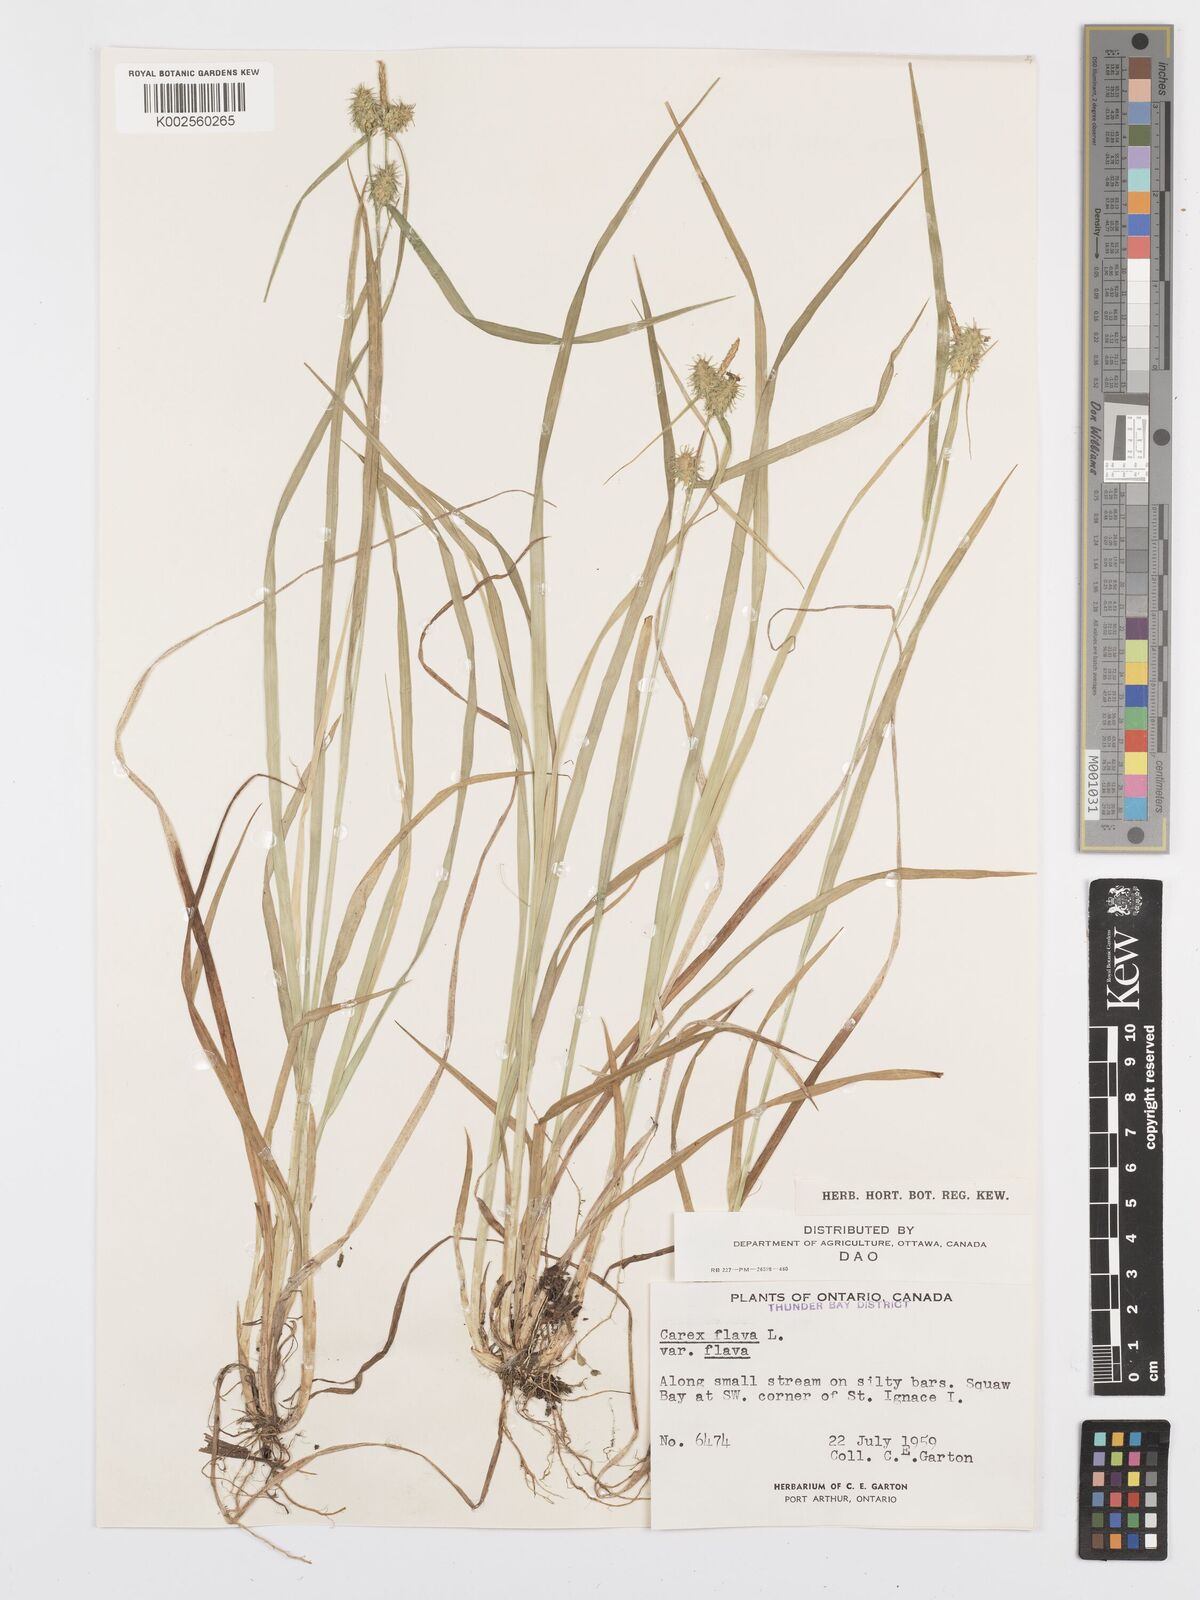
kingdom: Plantae
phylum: Tracheophyta
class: Liliopsida
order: Poales
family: Cyperaceae
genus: Carex
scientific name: Carex flava
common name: Large yellow-sedge
